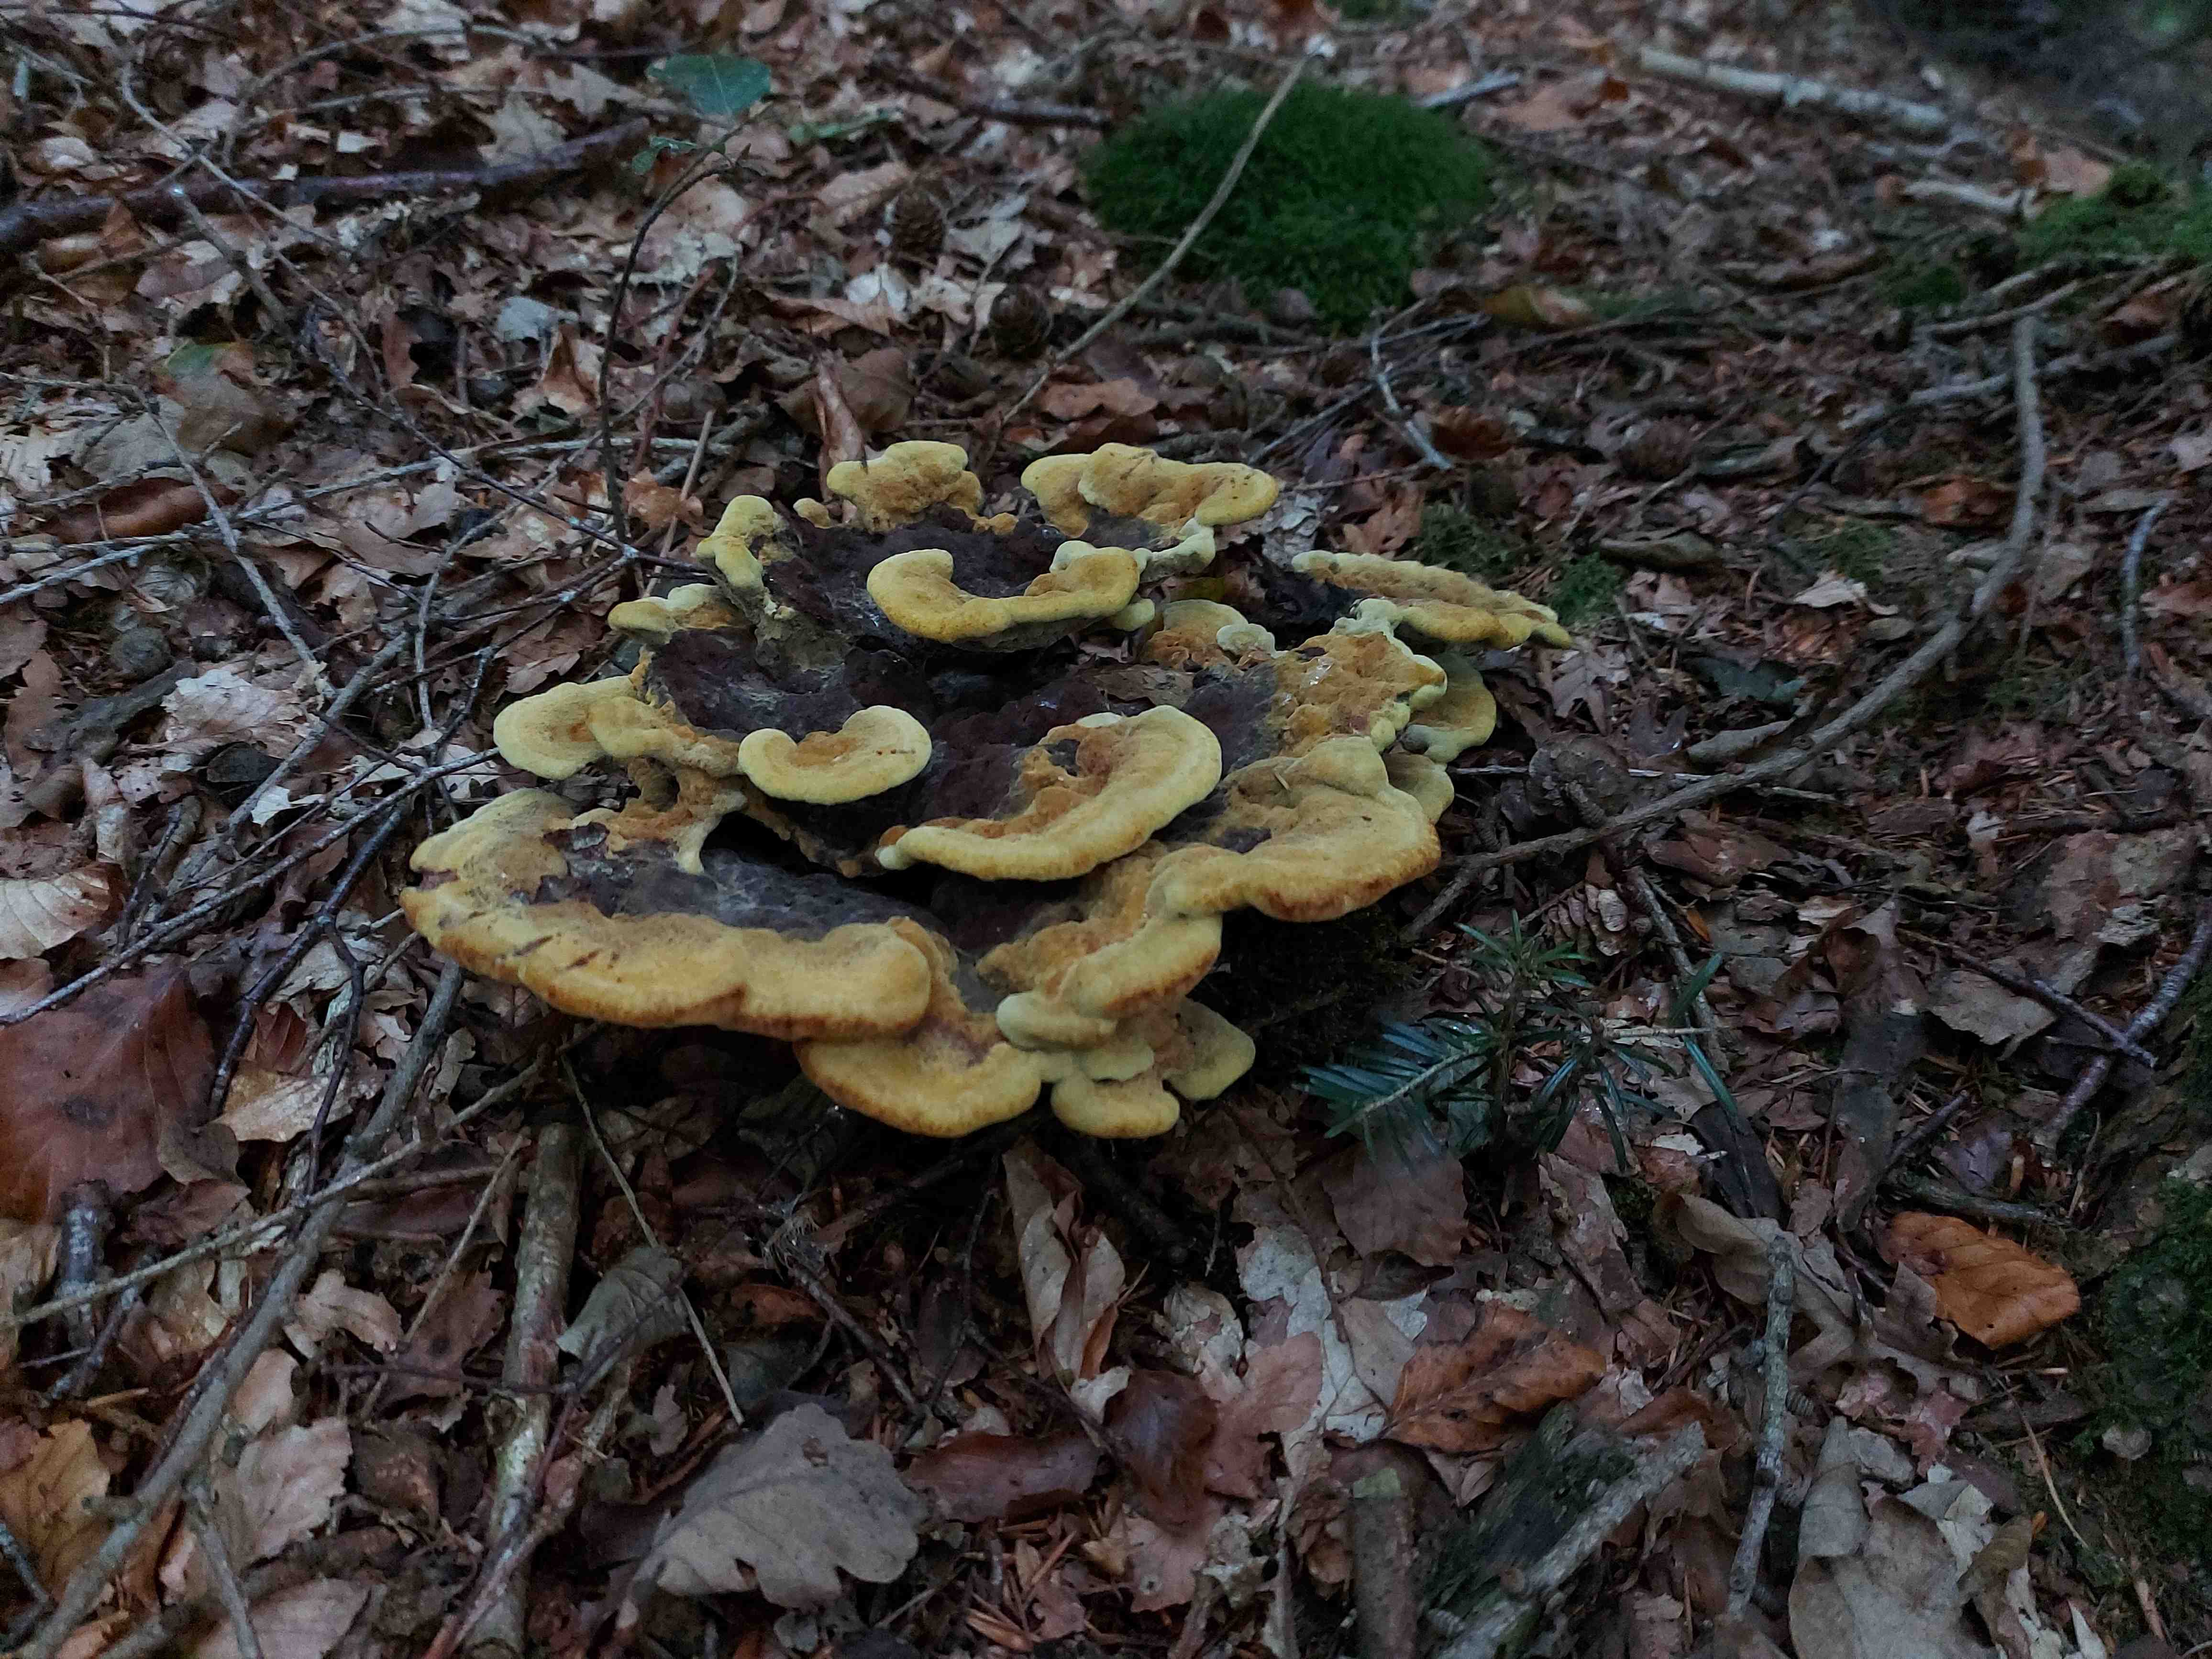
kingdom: Fungi
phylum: Basidiomycota
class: Agaricomycetes
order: Polyporales
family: Laetiporaceae
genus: Phaeolus
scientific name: Phaeolus schweinitzii
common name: brunporesvamp
